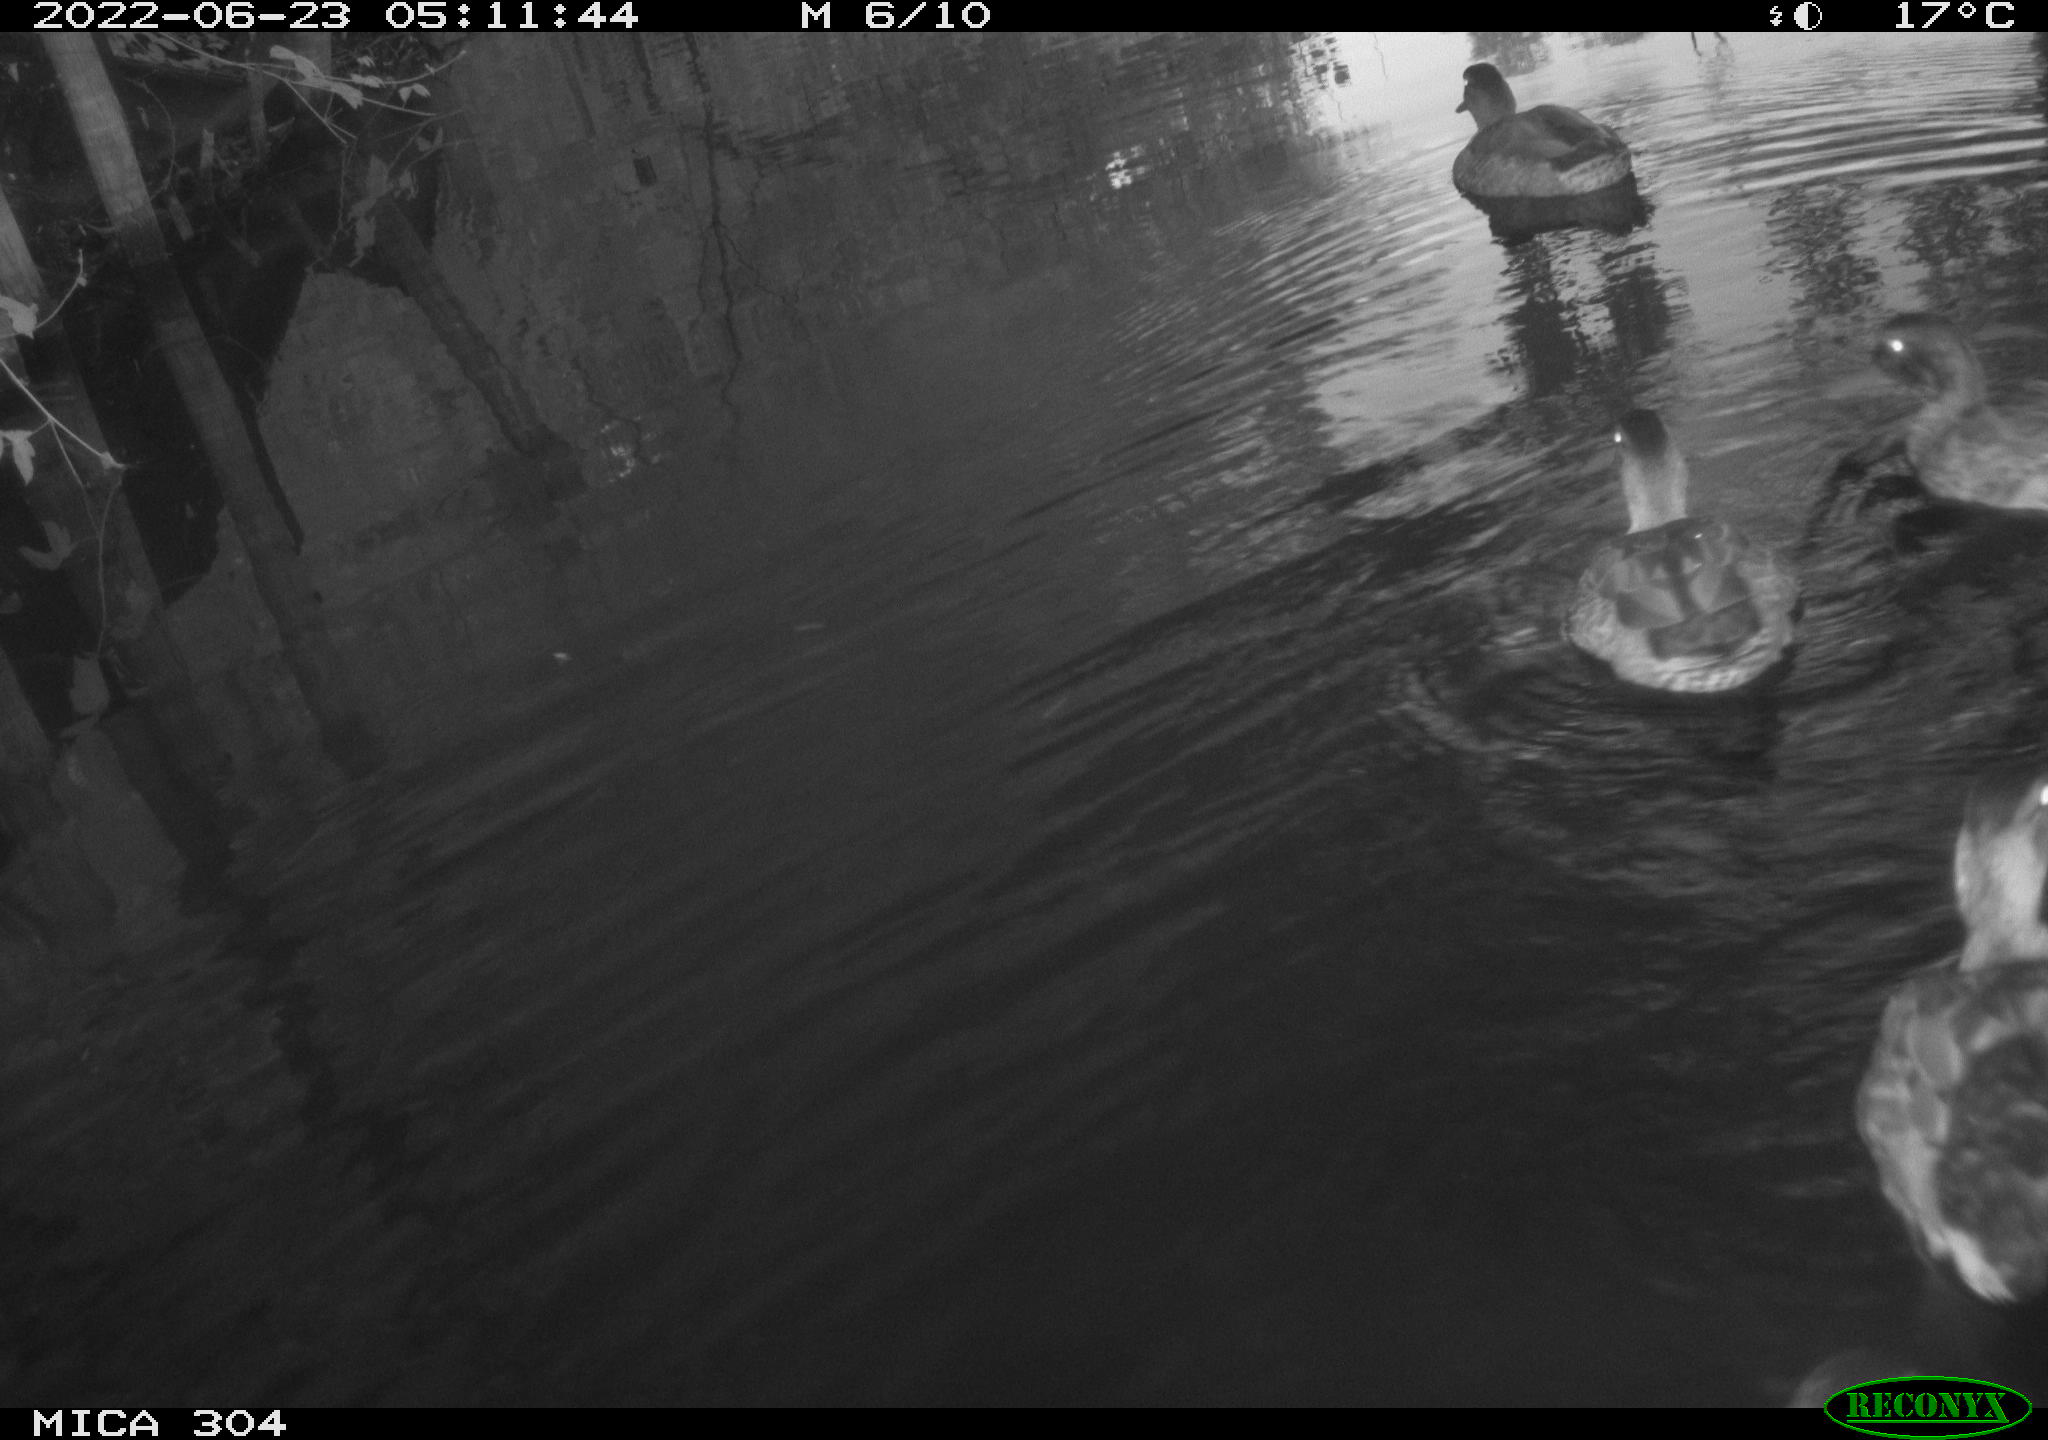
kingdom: Animalia
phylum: Chordata
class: Aves
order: Anseriformes
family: Anatidae
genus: Anas
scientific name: Anas platyrhynchos
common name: Mallard
